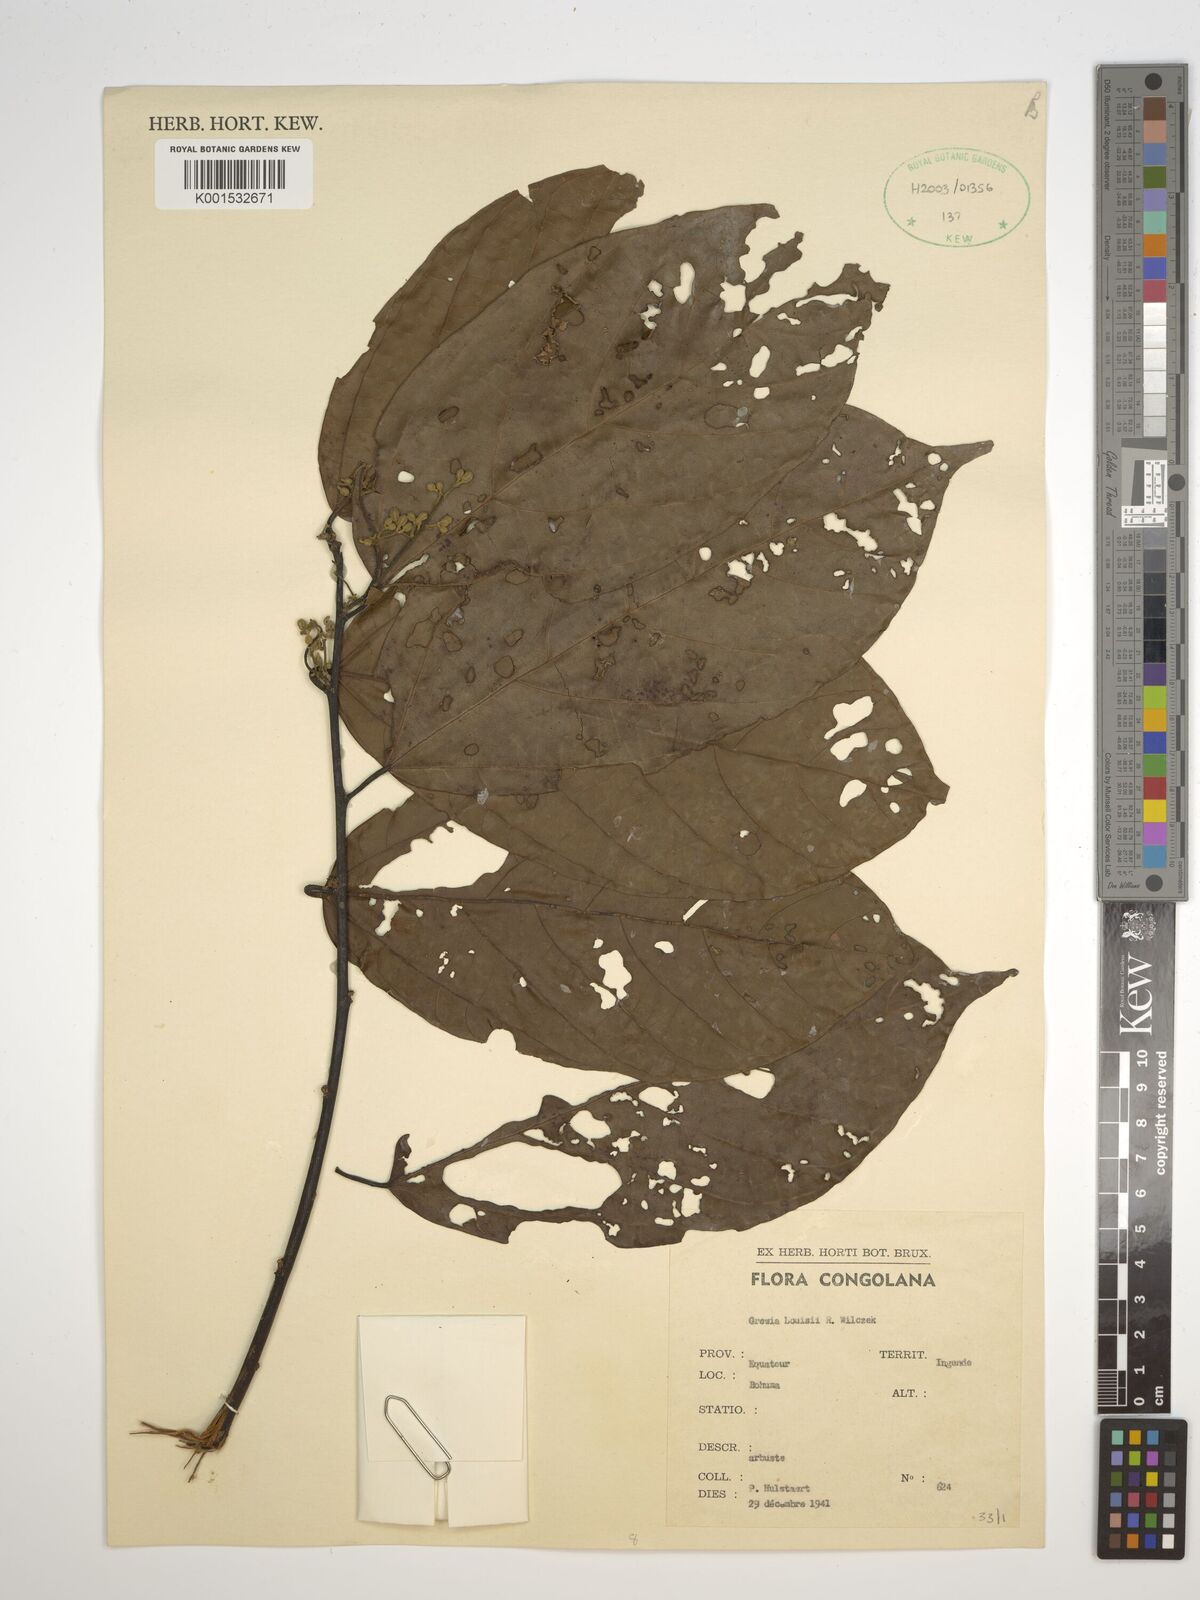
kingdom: Plantae
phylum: Tracheophyta
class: Magnoliopsida
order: Malvales
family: Malvaceae
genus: Grewia
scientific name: Grewia louisii
